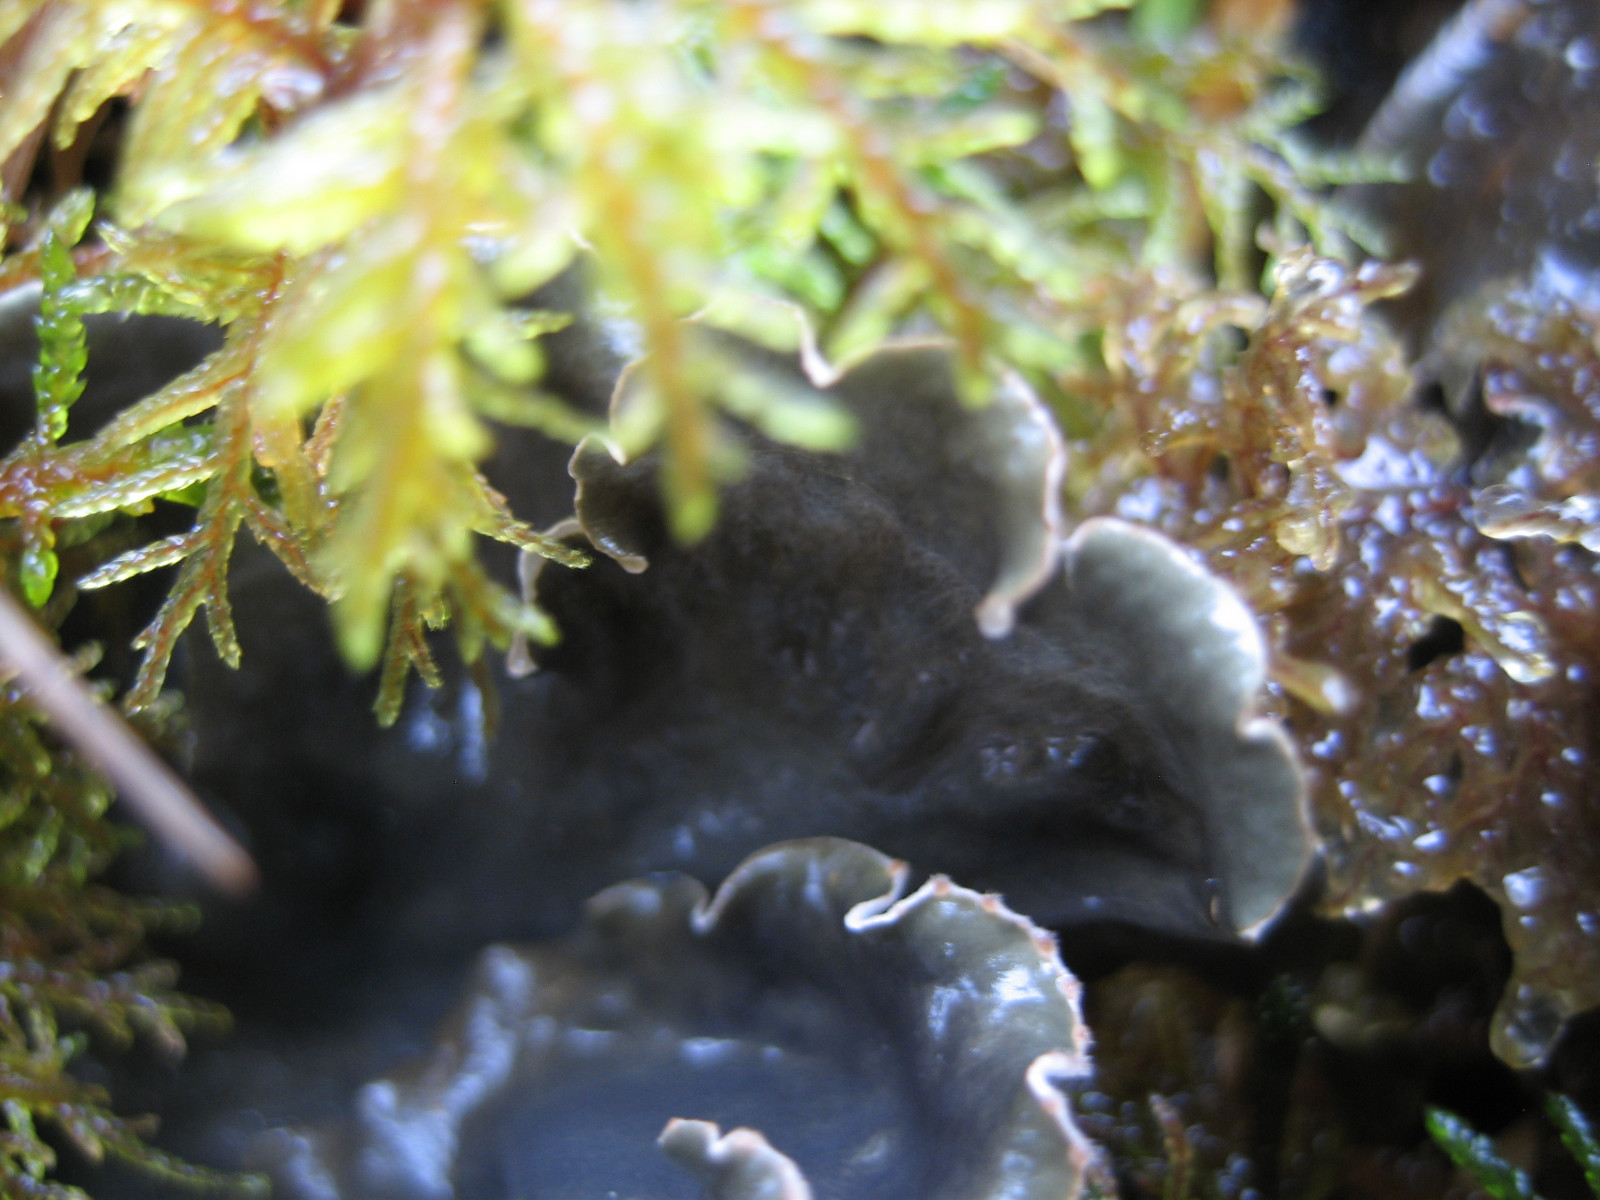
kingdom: Fungi
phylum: Ascomycota
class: Lecanoromycetes
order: Peltigerales
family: Peltigeraceae
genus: Peltigera
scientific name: Peltigera hymenina
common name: hinde-skjoldlav
